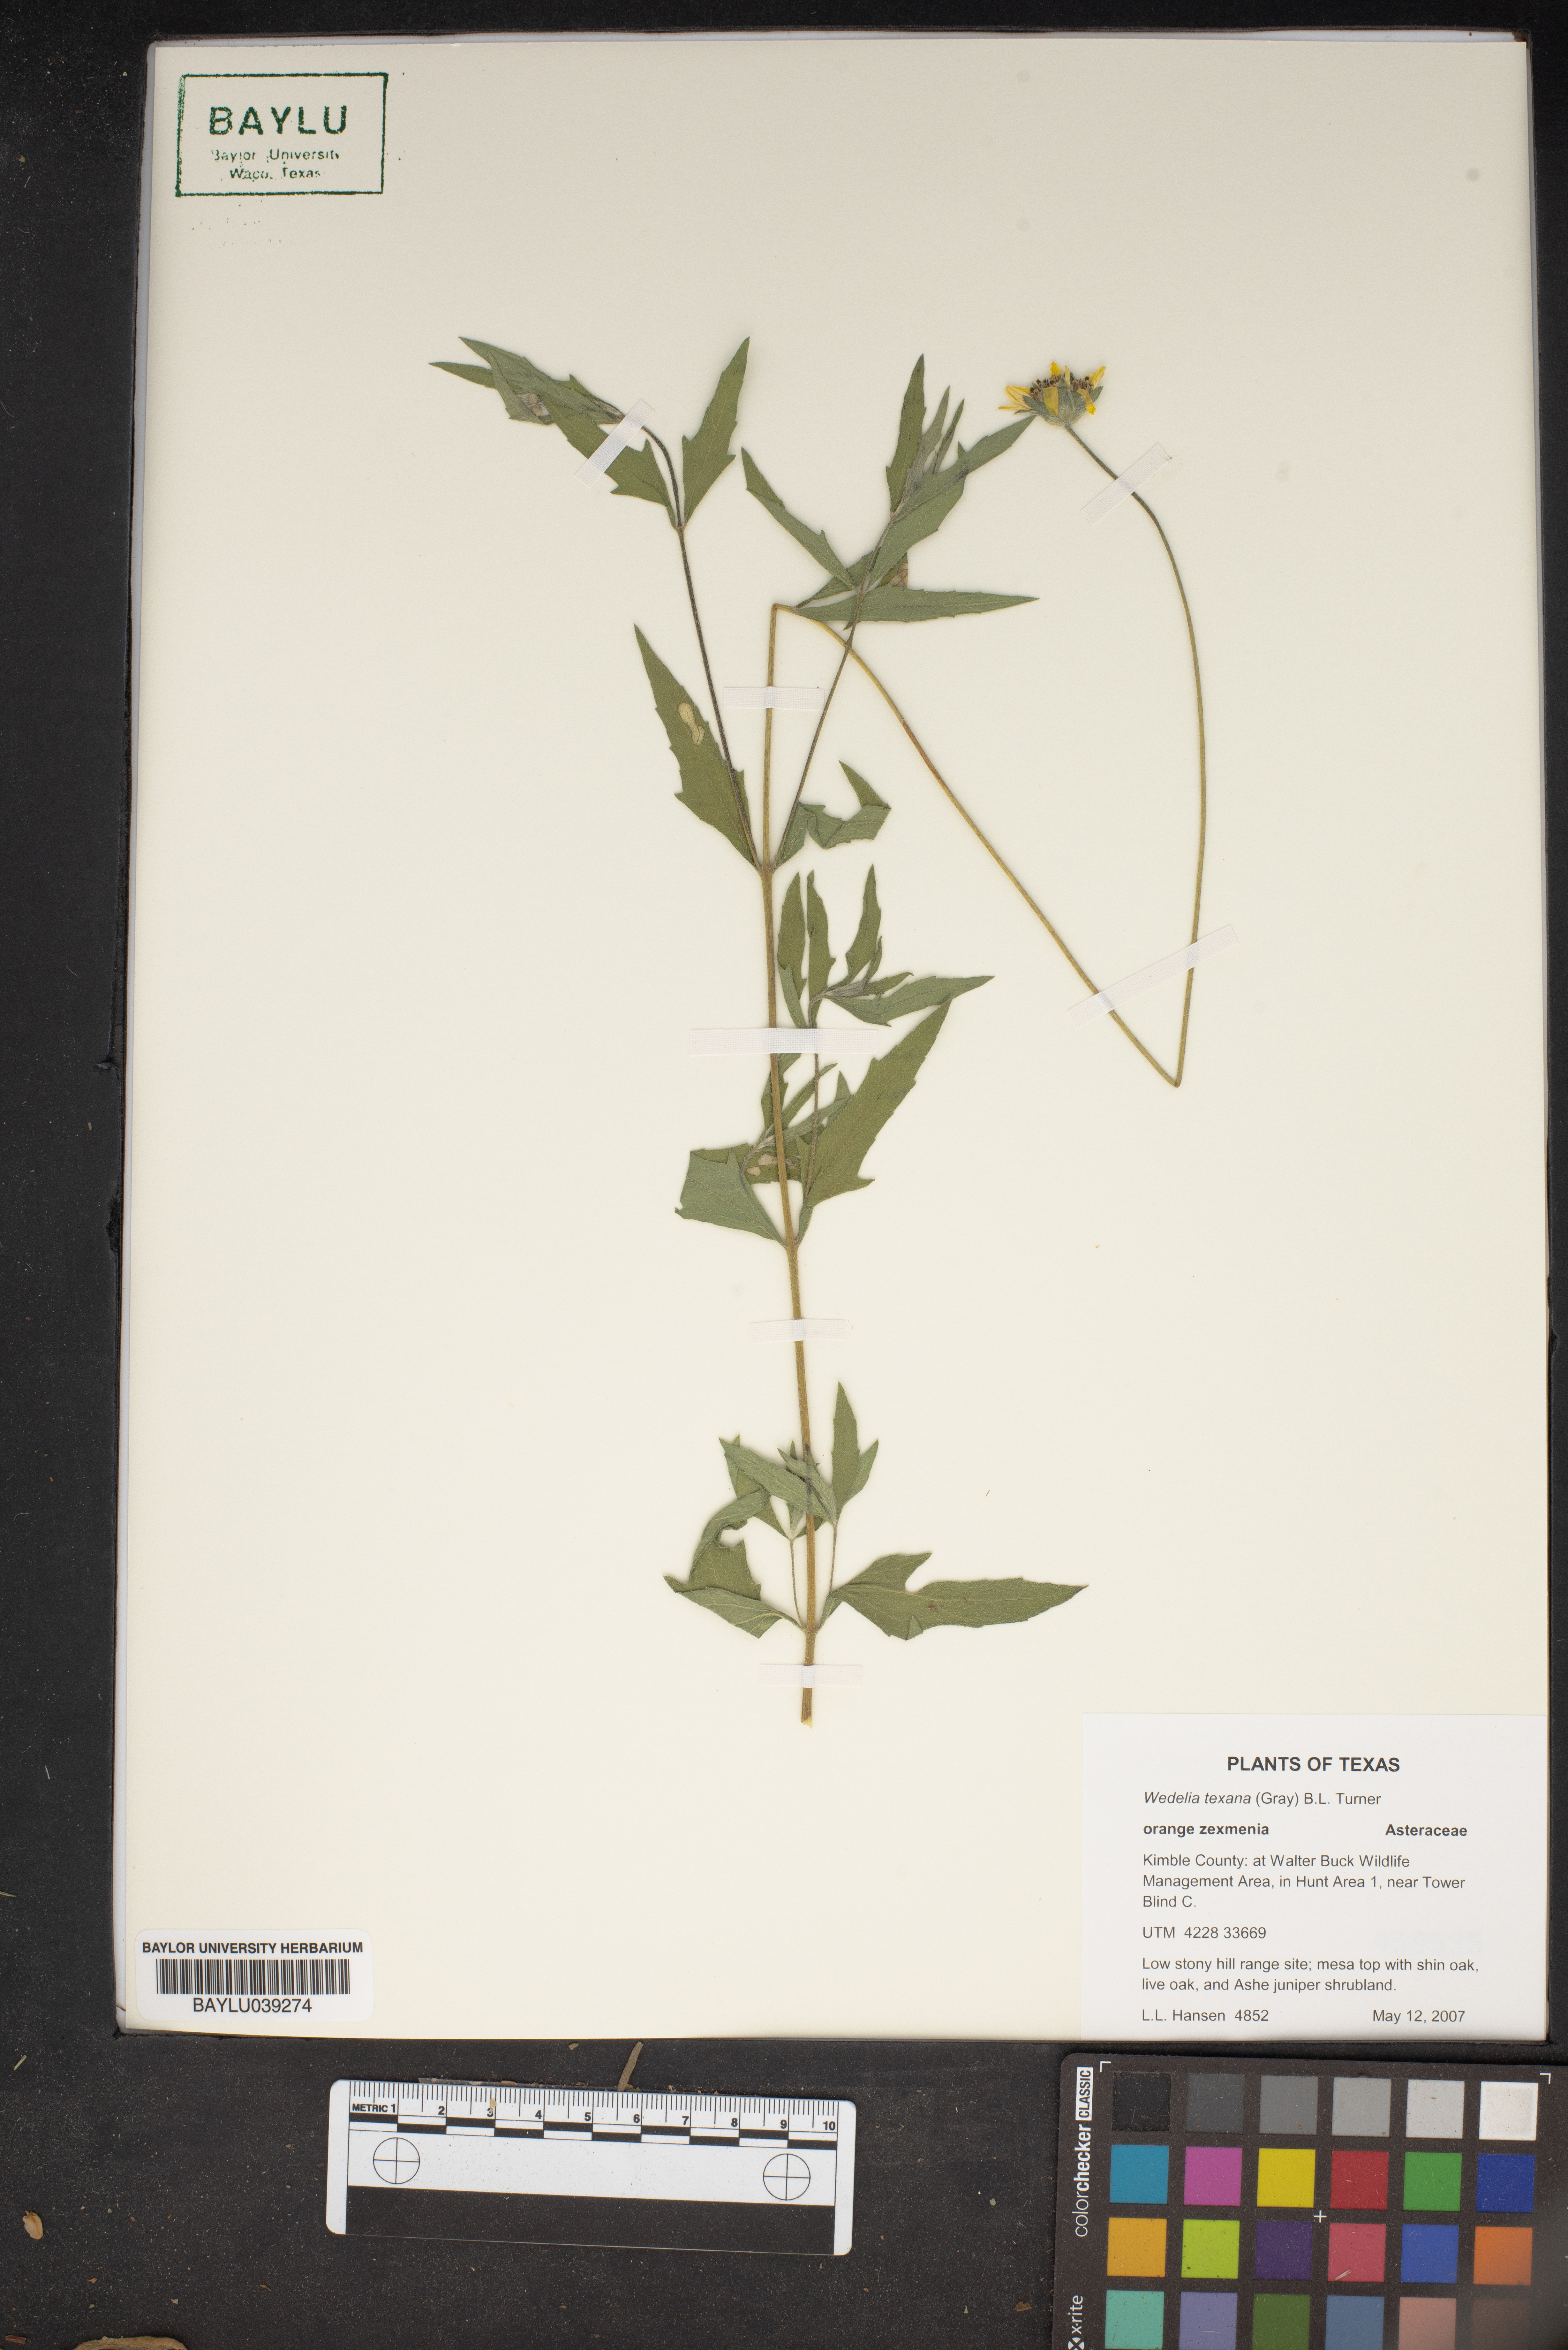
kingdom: Plantae
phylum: Tracheophyta
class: Magnoliopsida
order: Asterales
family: Asteraceae
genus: Wedelia
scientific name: Wedelia acapulcensis
